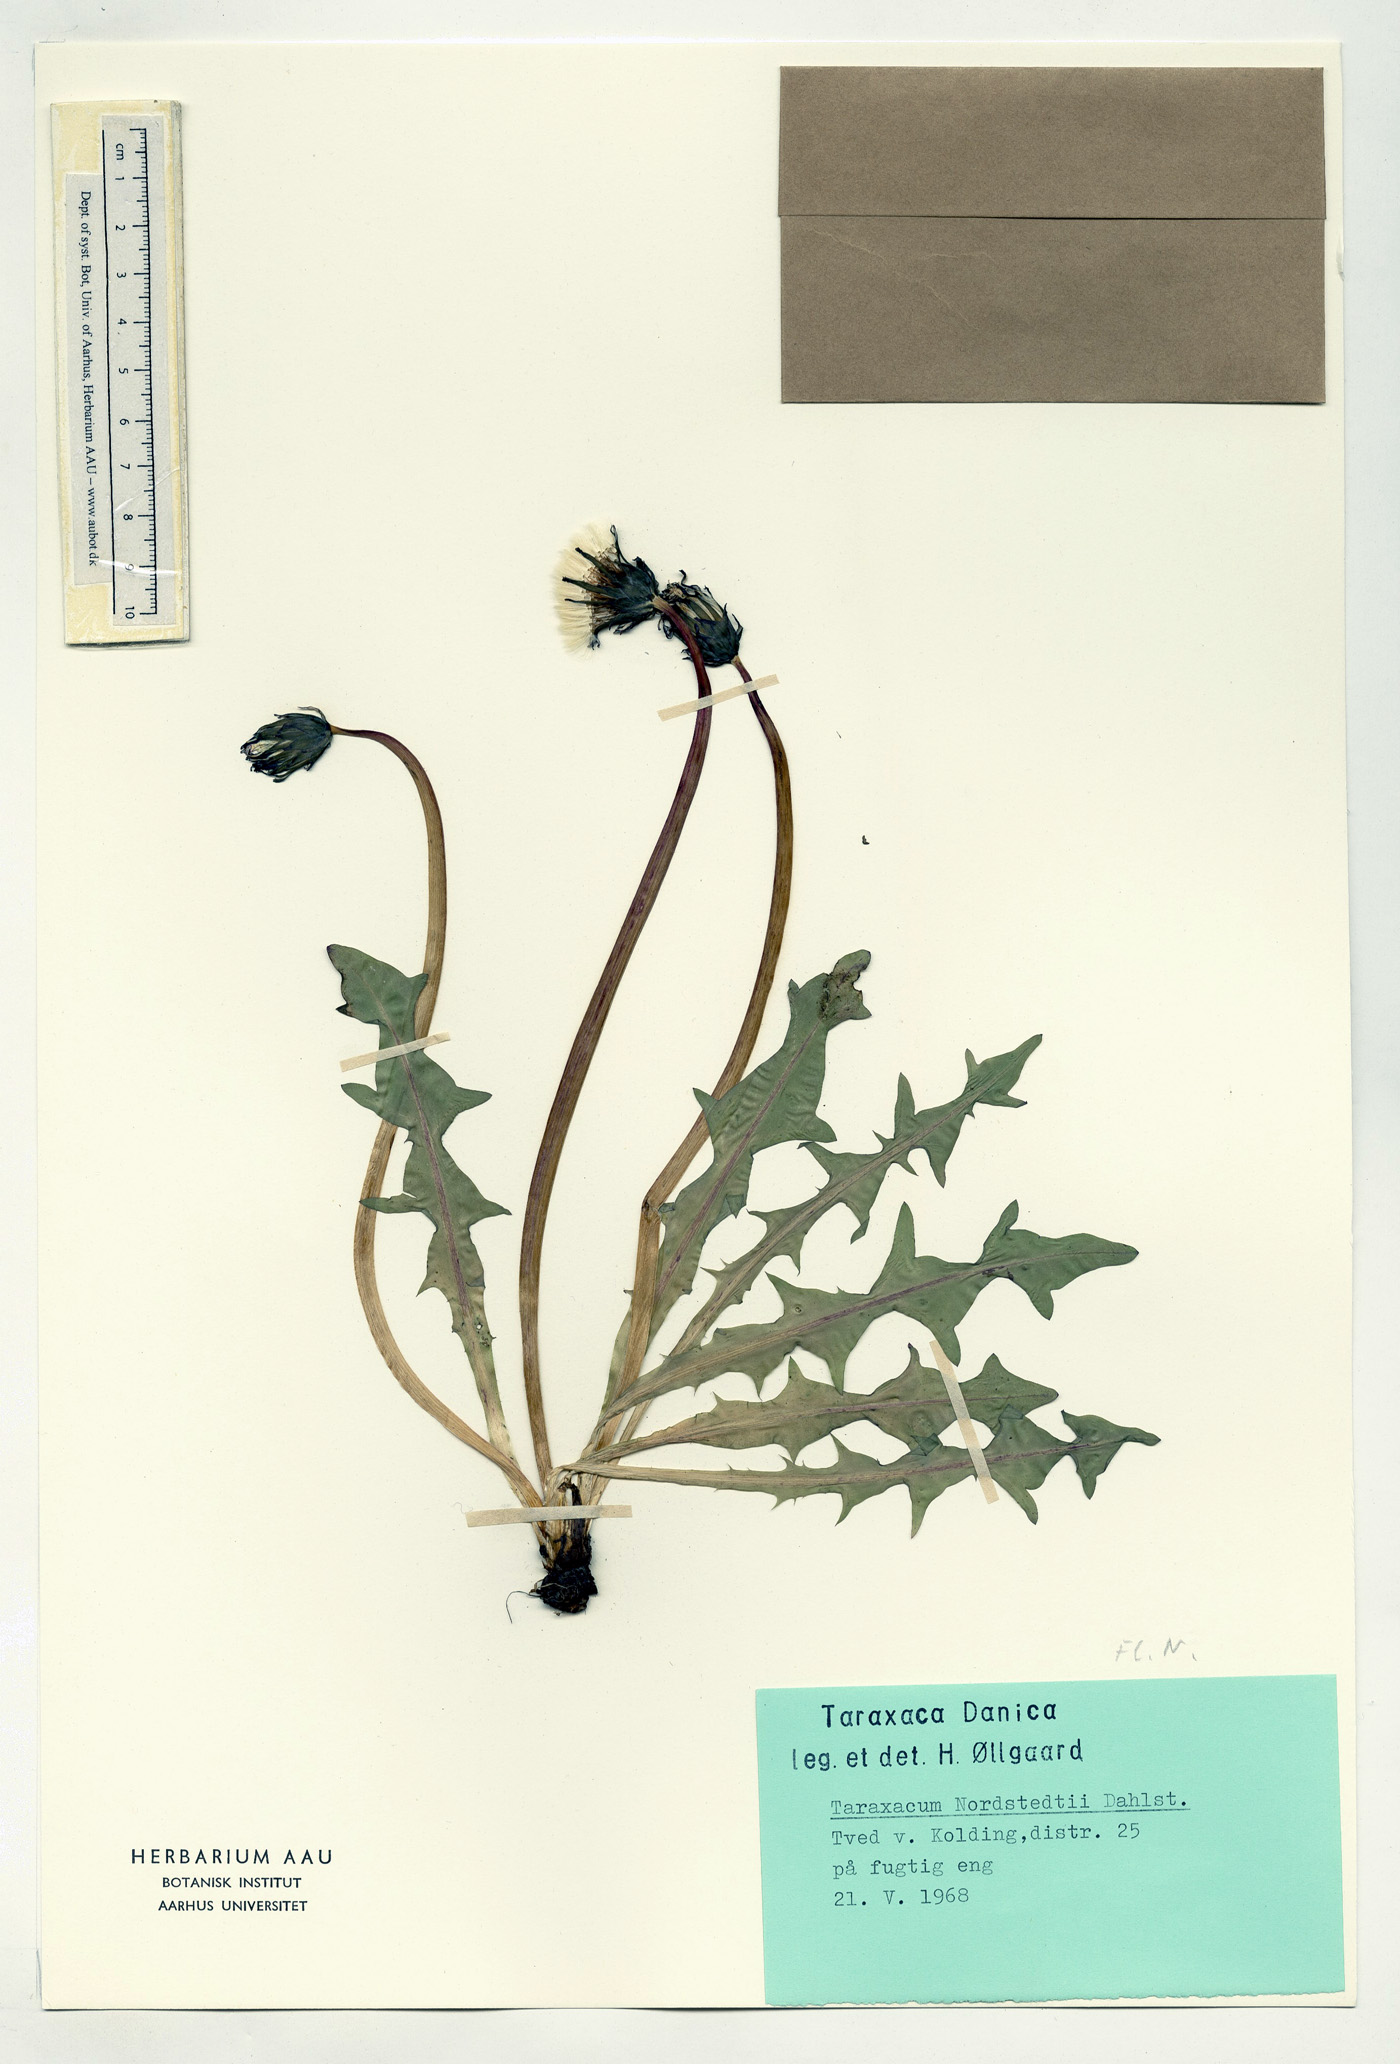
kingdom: Plantae
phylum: Tracheophyta
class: Magnoliopsida
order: Asterales
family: Asteraceae
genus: Taraxacum
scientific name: Taraxacum nordstedtii
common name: Nordstedt's dandelion
